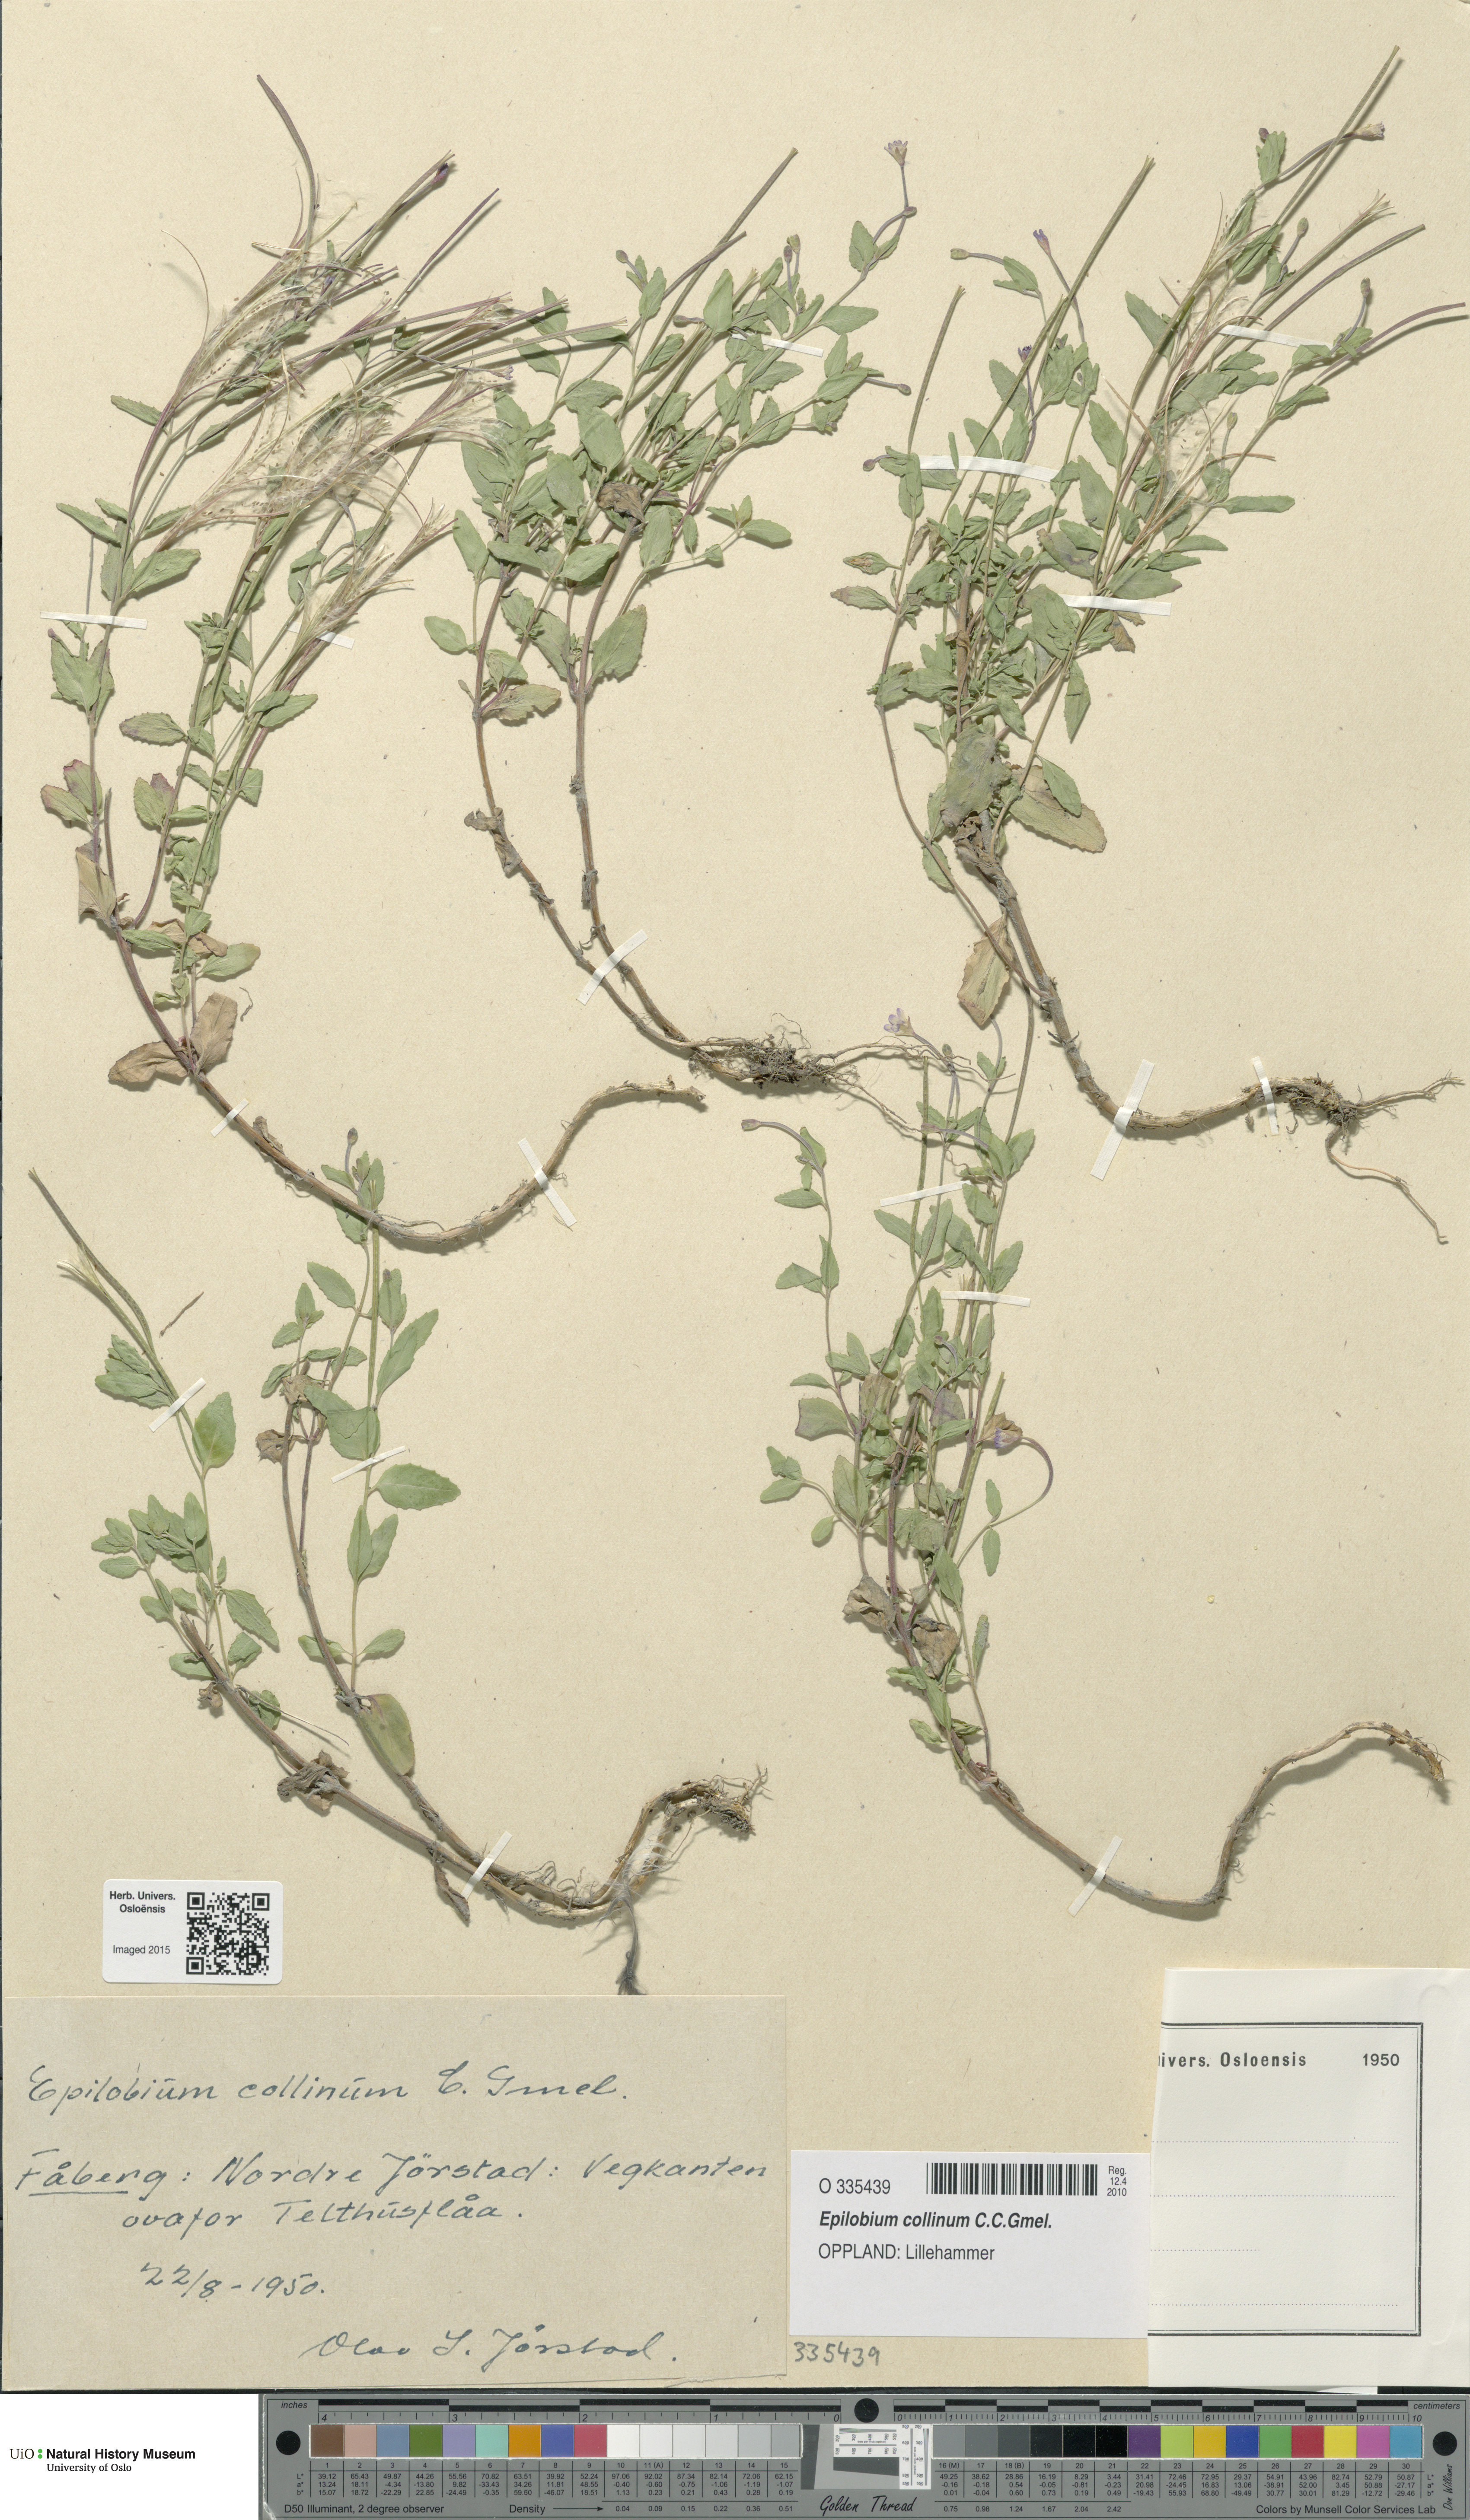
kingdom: Plantae
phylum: Tracheophyta
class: Magnoliopsida
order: Myrtales
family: Onagraceae
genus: Epilobium
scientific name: Epilobium collinum
